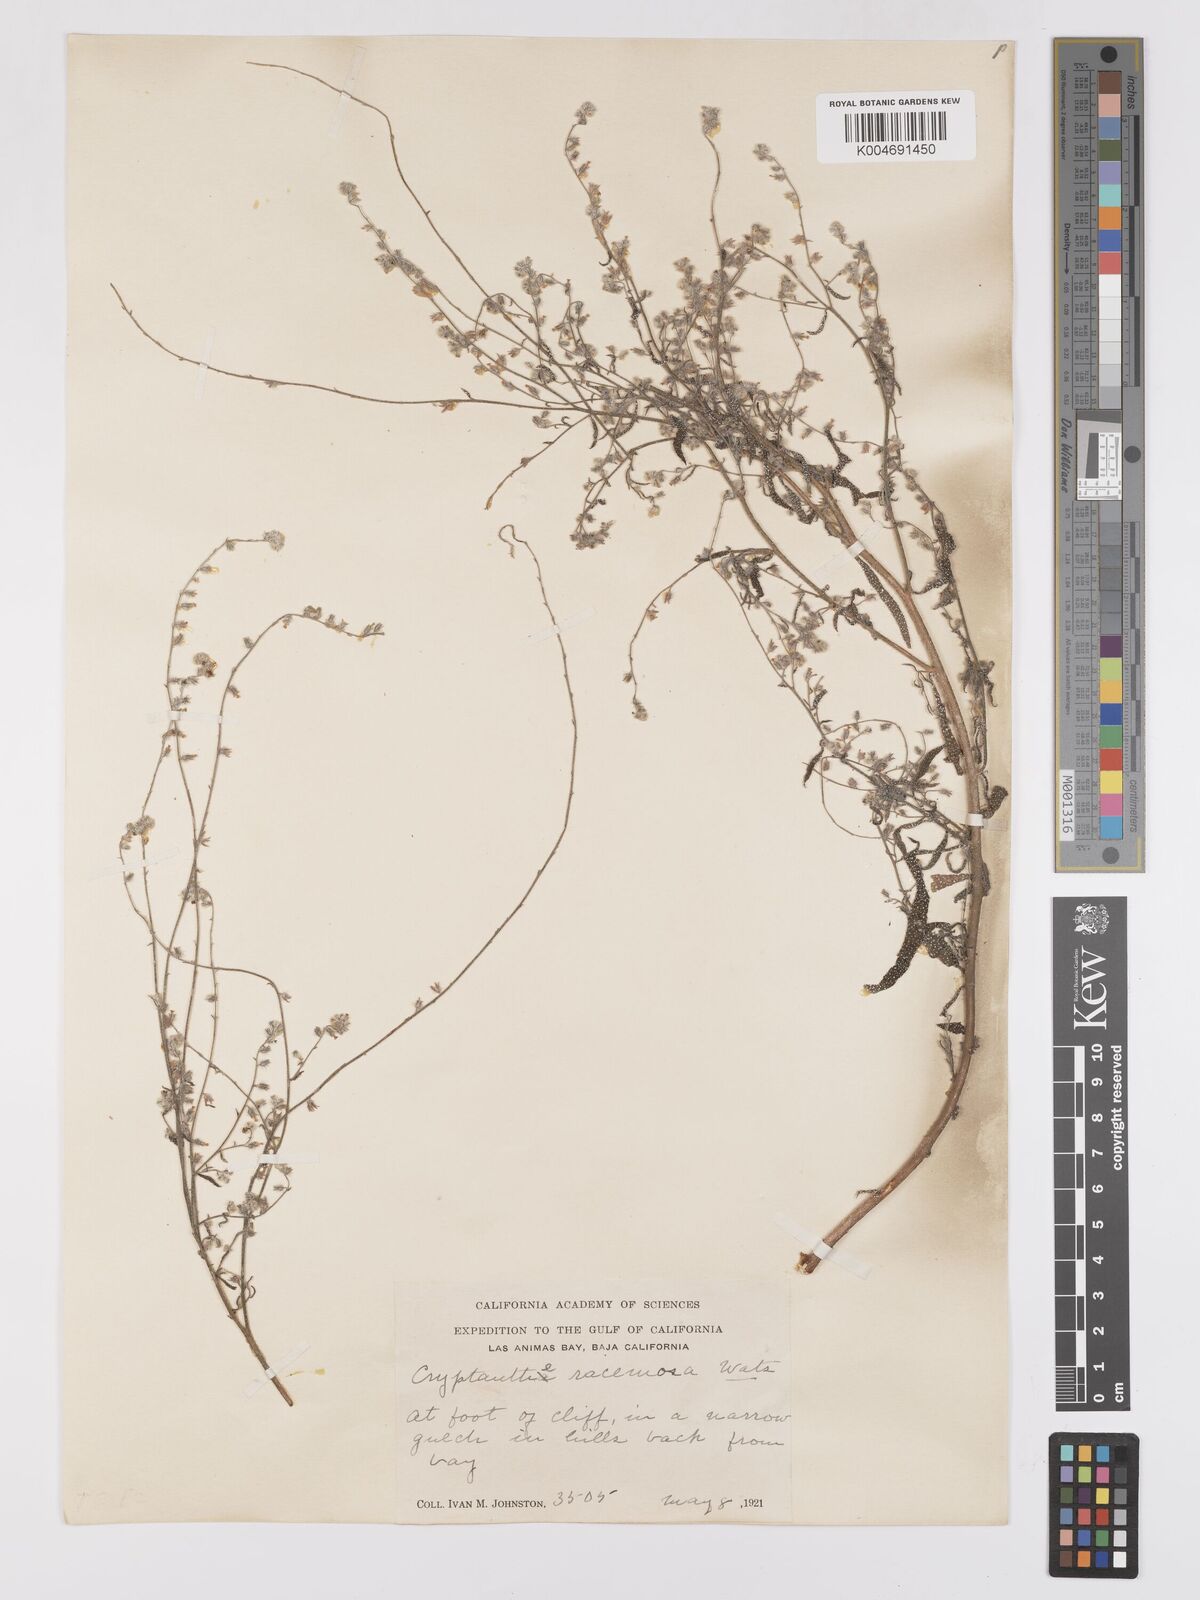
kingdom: Plantae
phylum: Tracheophyta
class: Magnoliopsida
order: Boraginales
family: Boraginaceae
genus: Johnstonella
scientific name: Johnstonella racemosa
